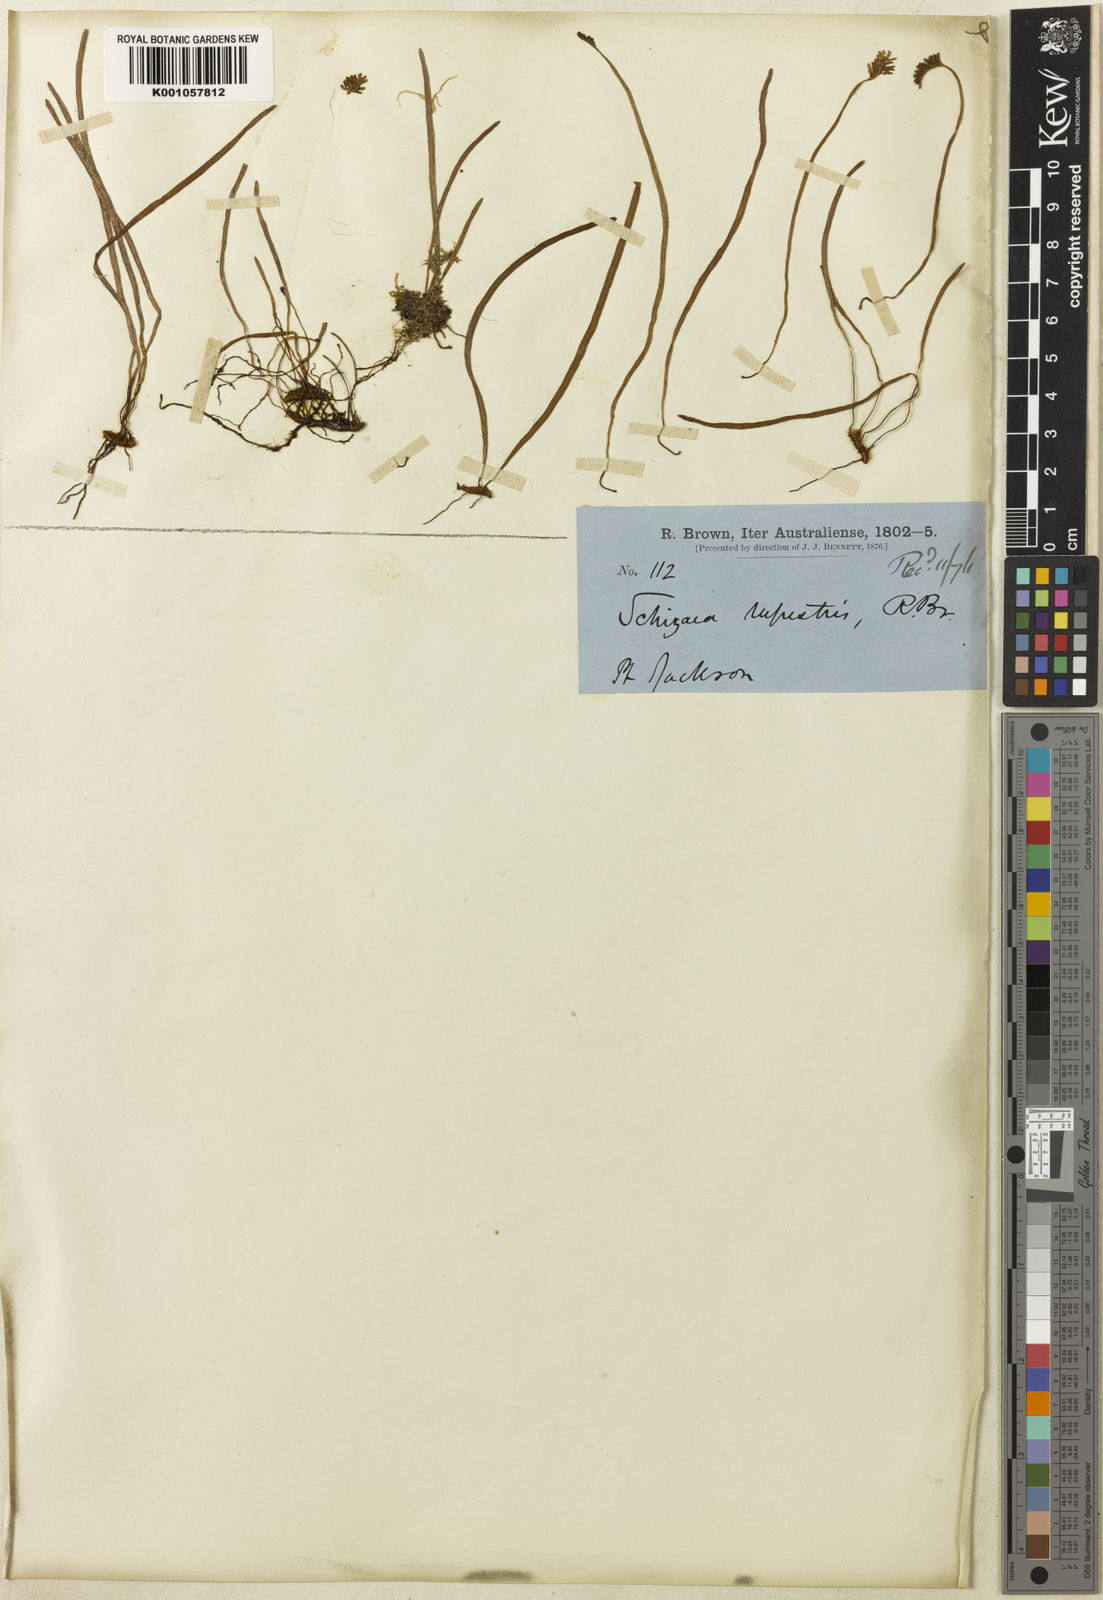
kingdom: Plantae
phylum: Tracheophyta
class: Polypodiopsida
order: Schizaeales
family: Schizaeaceae
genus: Microschizaea
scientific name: Microschizaea rupestris
